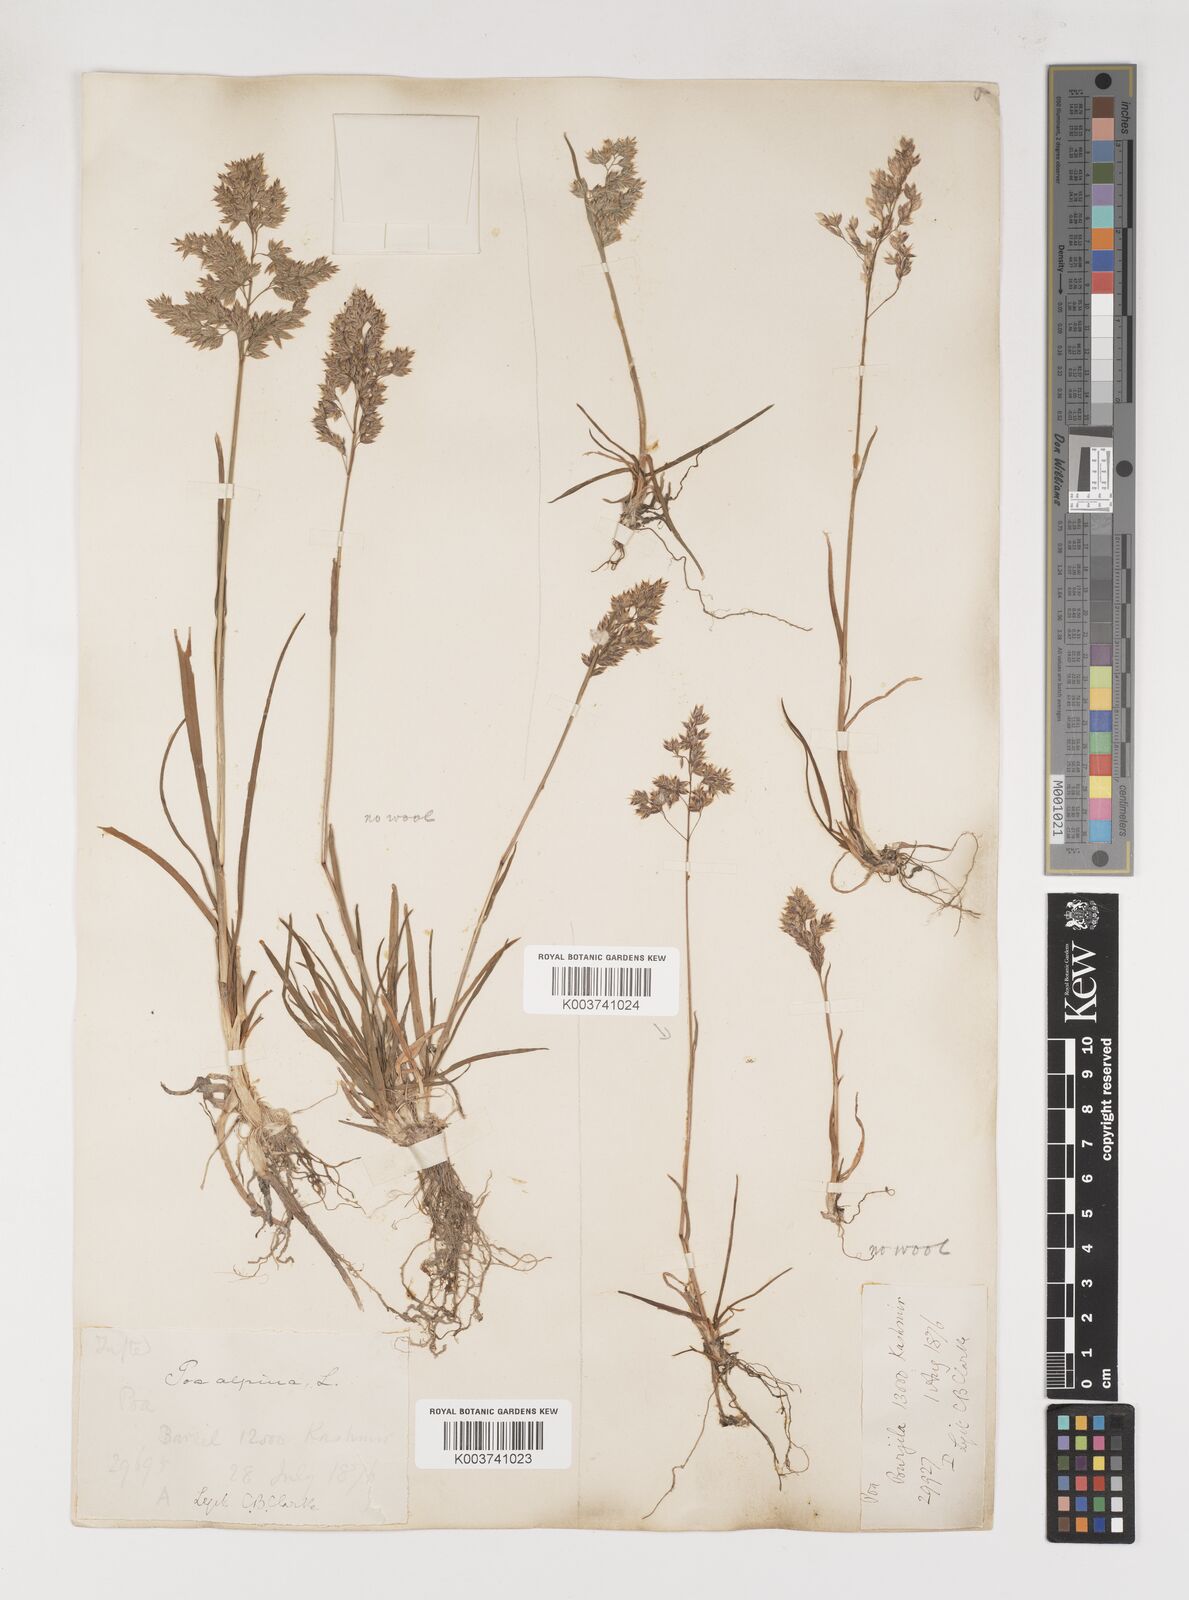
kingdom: Plantae
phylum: Tracheophyta
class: Liliopsida
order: Poales
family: Poaceae
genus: Poa
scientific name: Poa alpina
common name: Alpine bluegrass
